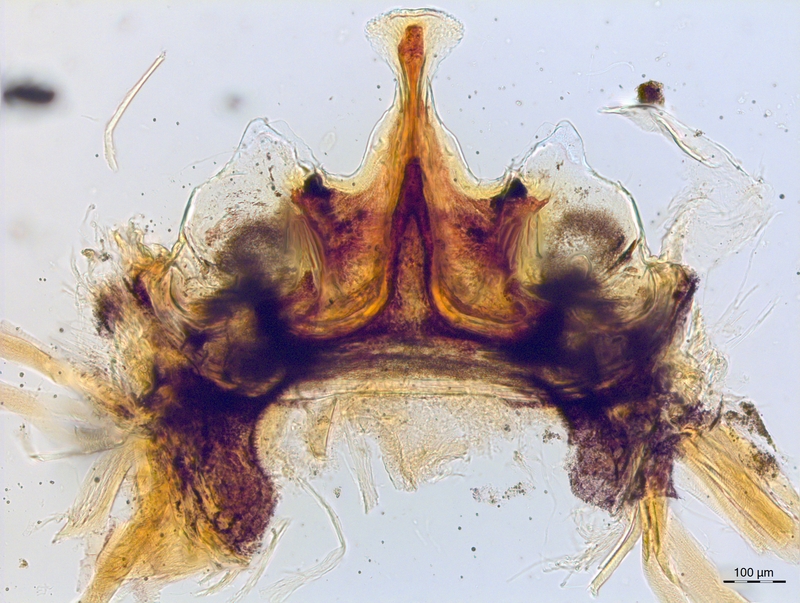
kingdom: Animalia
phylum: Arthropoda
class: Diplopoda
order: Chordeumatida
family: Craspedosomatidae
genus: Craspedosoma
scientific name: Craspedosoma slavum
